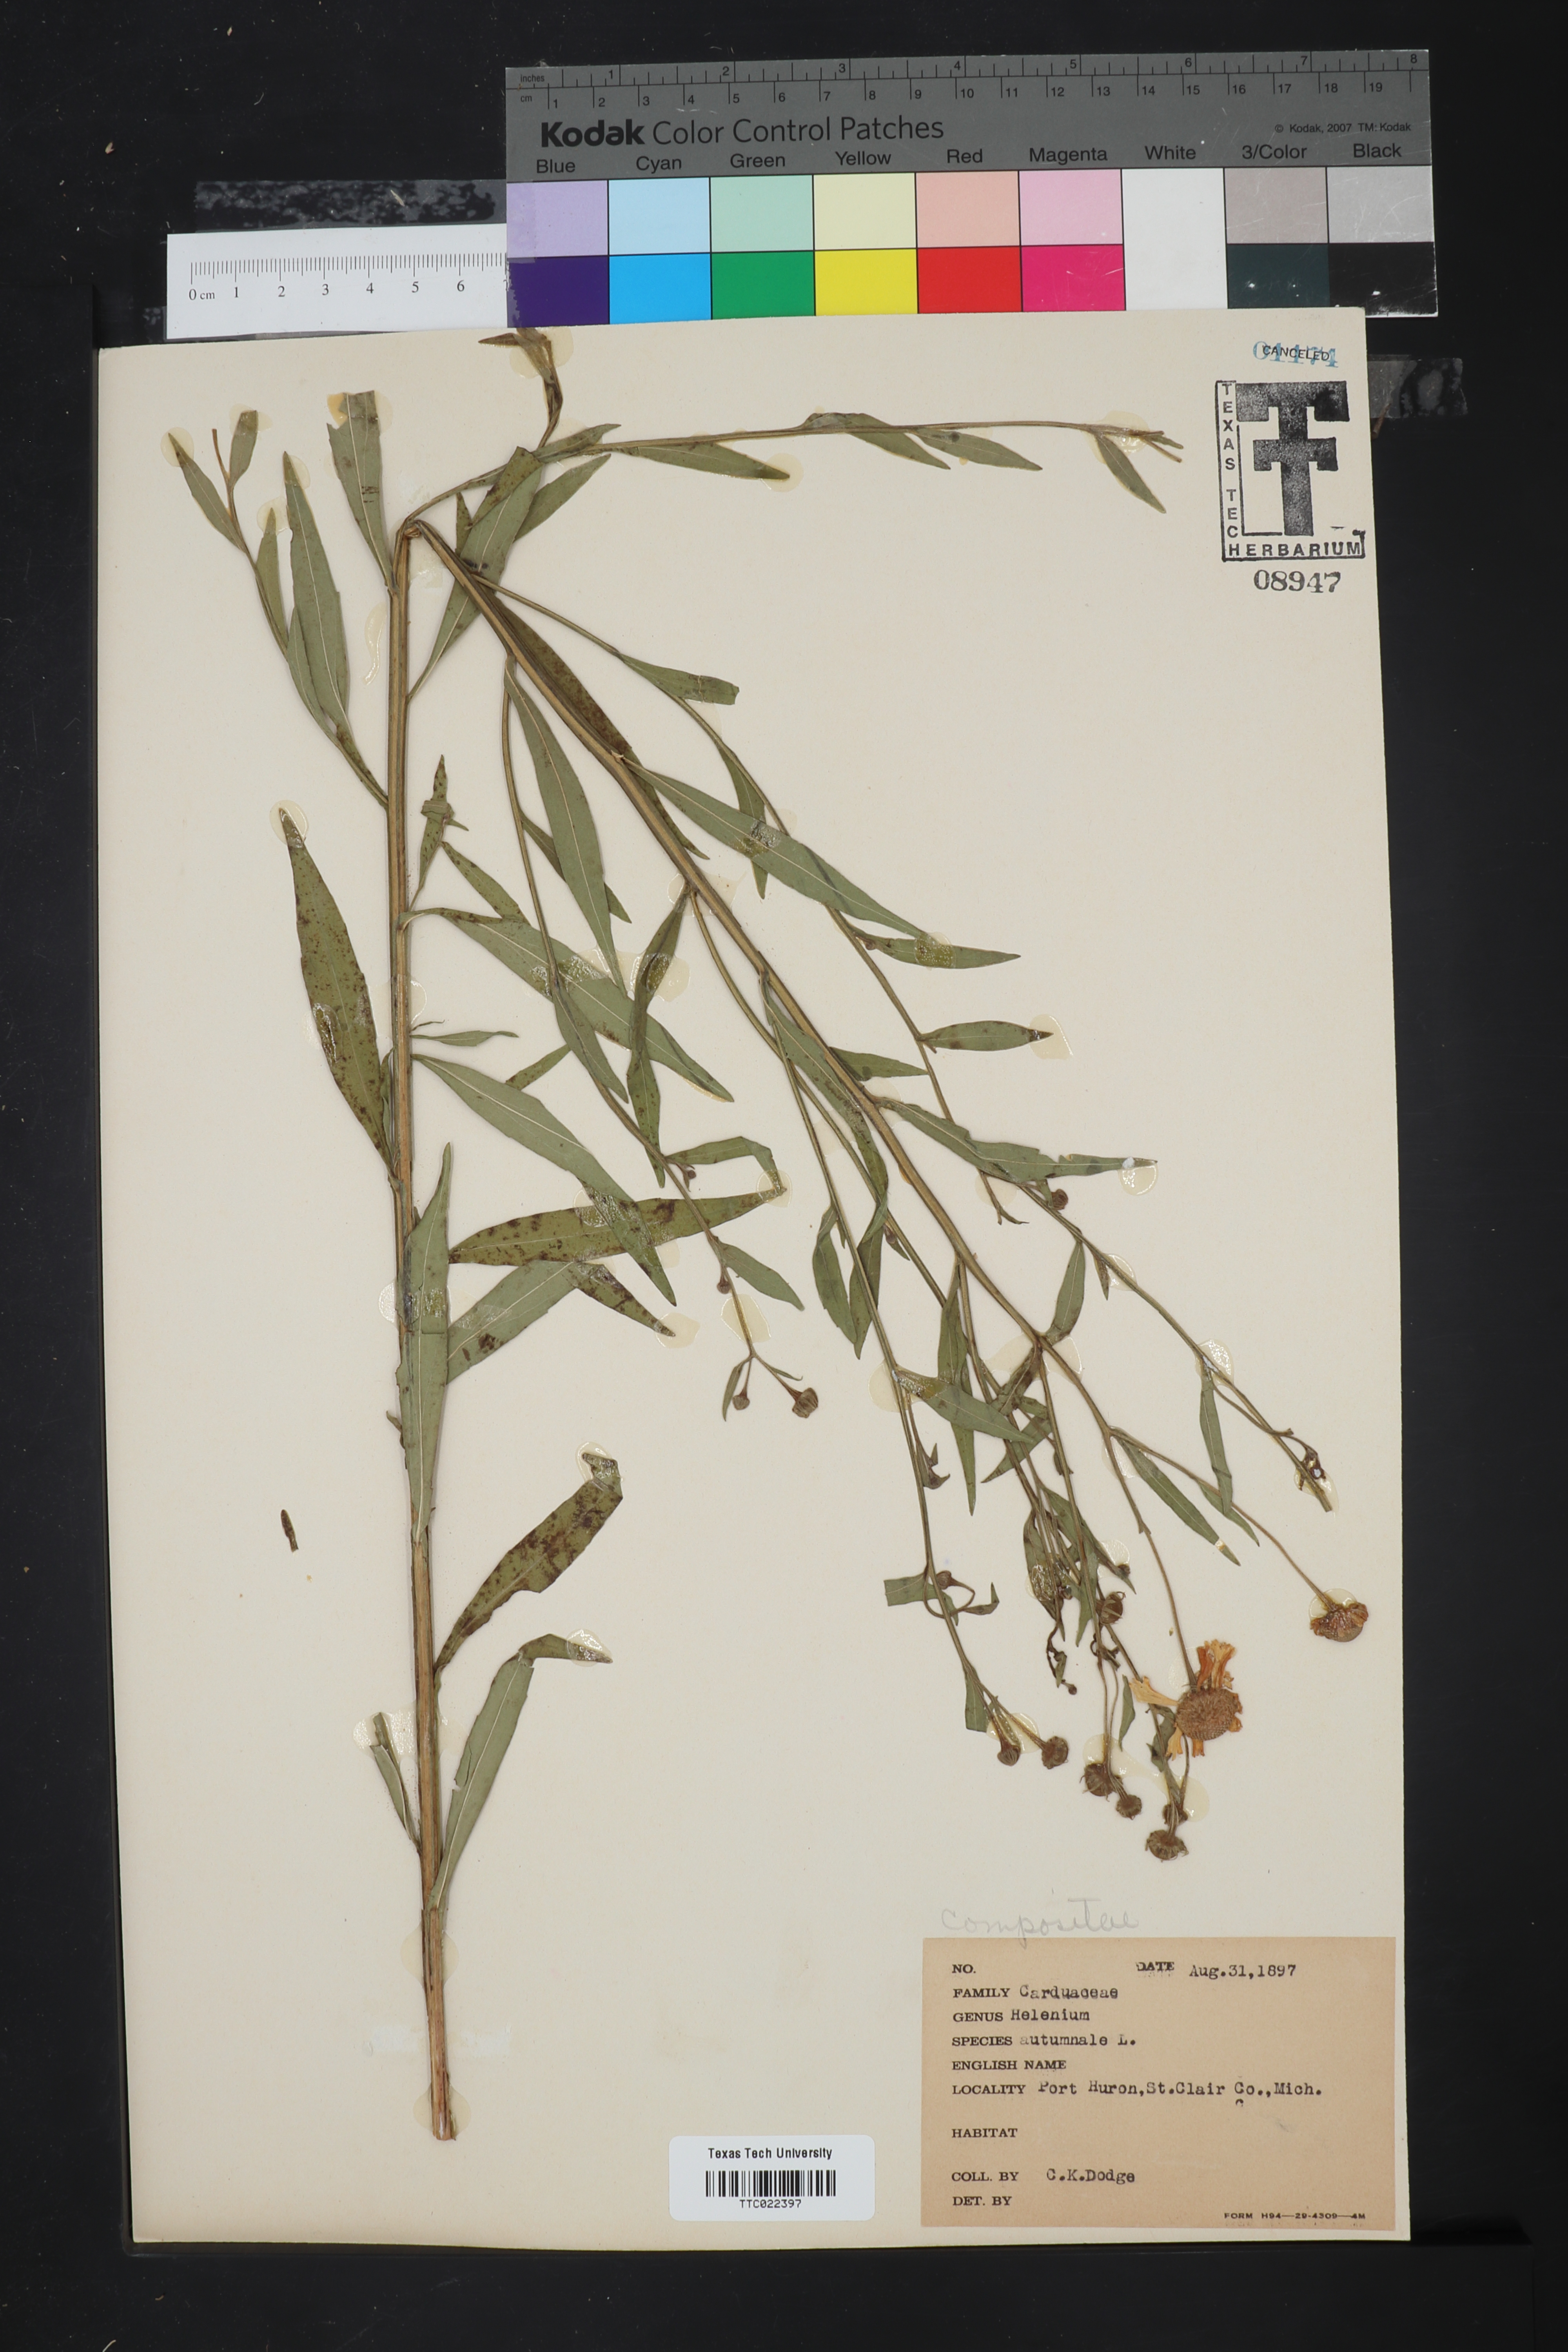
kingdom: Plantae
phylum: Tracheophyta
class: Magnoliopsida
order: Asterales
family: Asteraceae
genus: Helenium
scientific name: Helenium autumnale
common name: Sneezeweed
